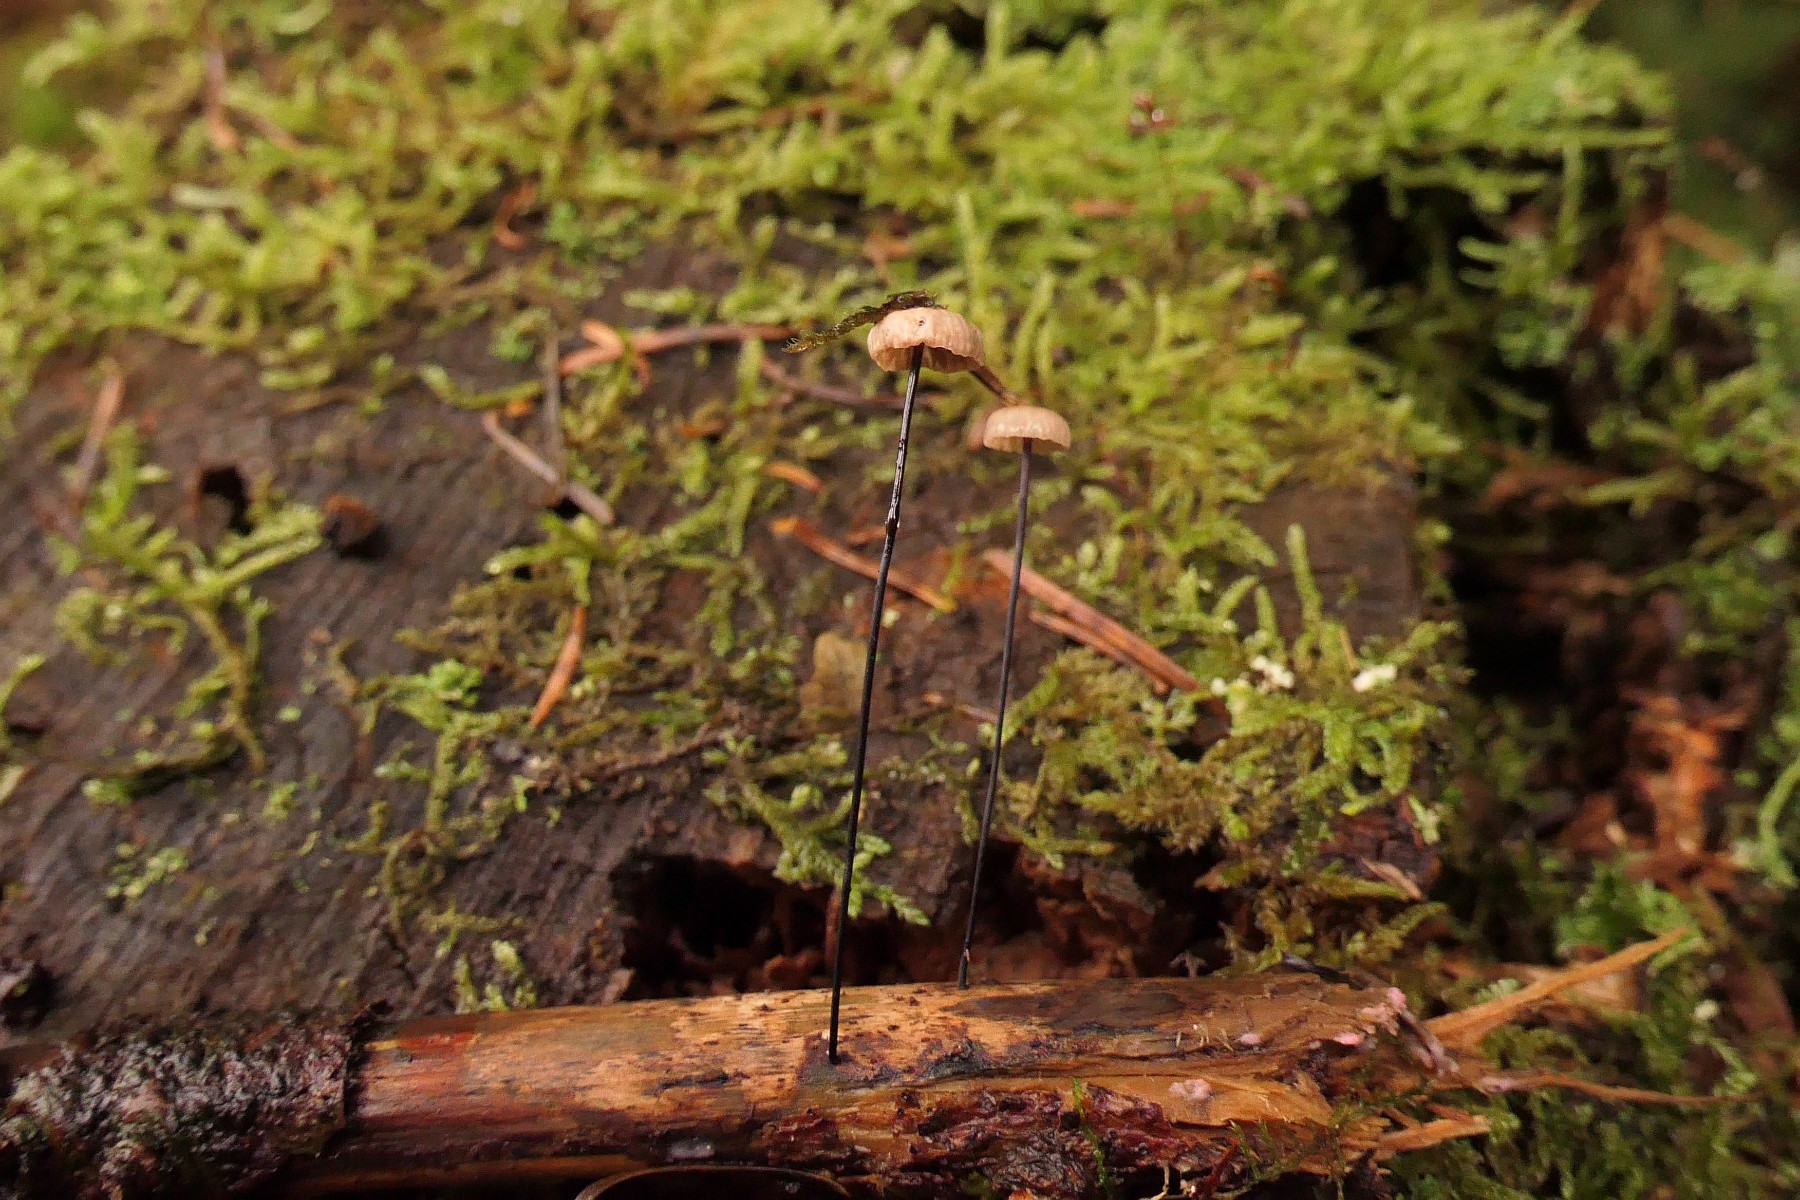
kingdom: Fungi
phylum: Basidiomycota
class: Agaricomycetes
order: Agaricales
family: Omphalotaceae
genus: Gymnopus
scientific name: Gymnopus androsaceus
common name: trådstokket fladhat
